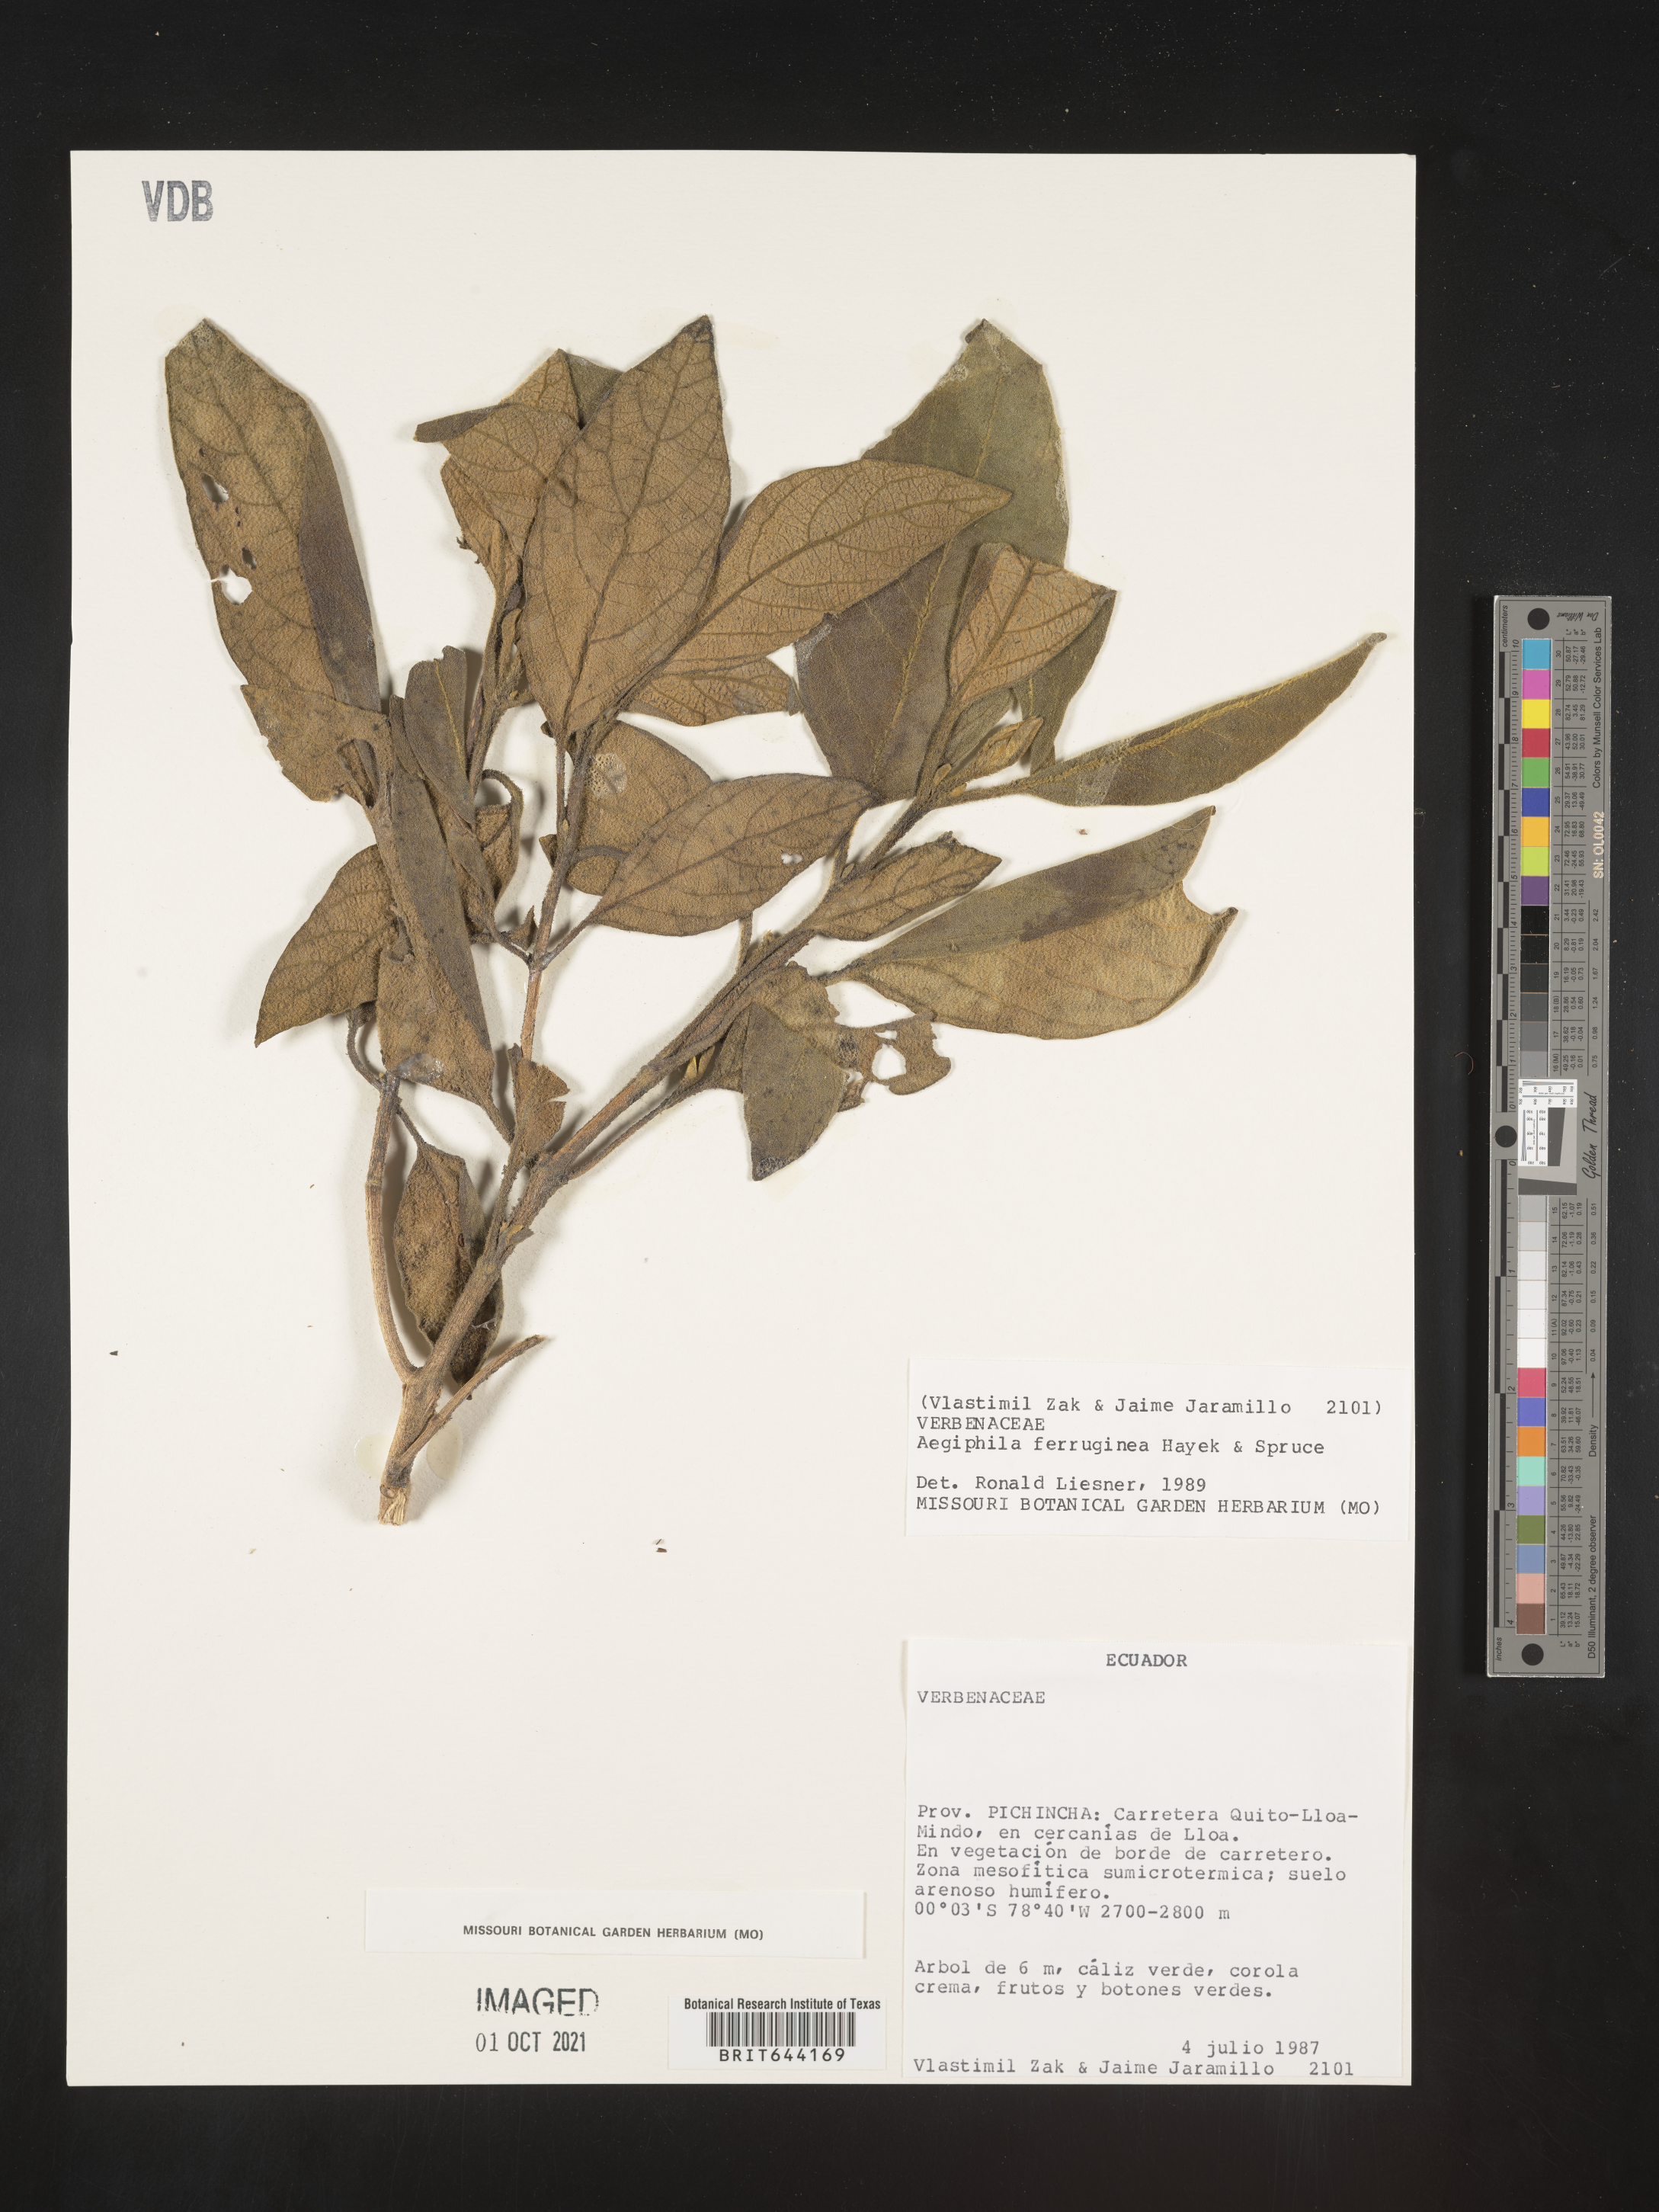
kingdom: Plantae
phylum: Tracheophyta
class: Magnoliopsida
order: Lamiales
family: Lamiaceae
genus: Aegiphila
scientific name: Aegiphila
